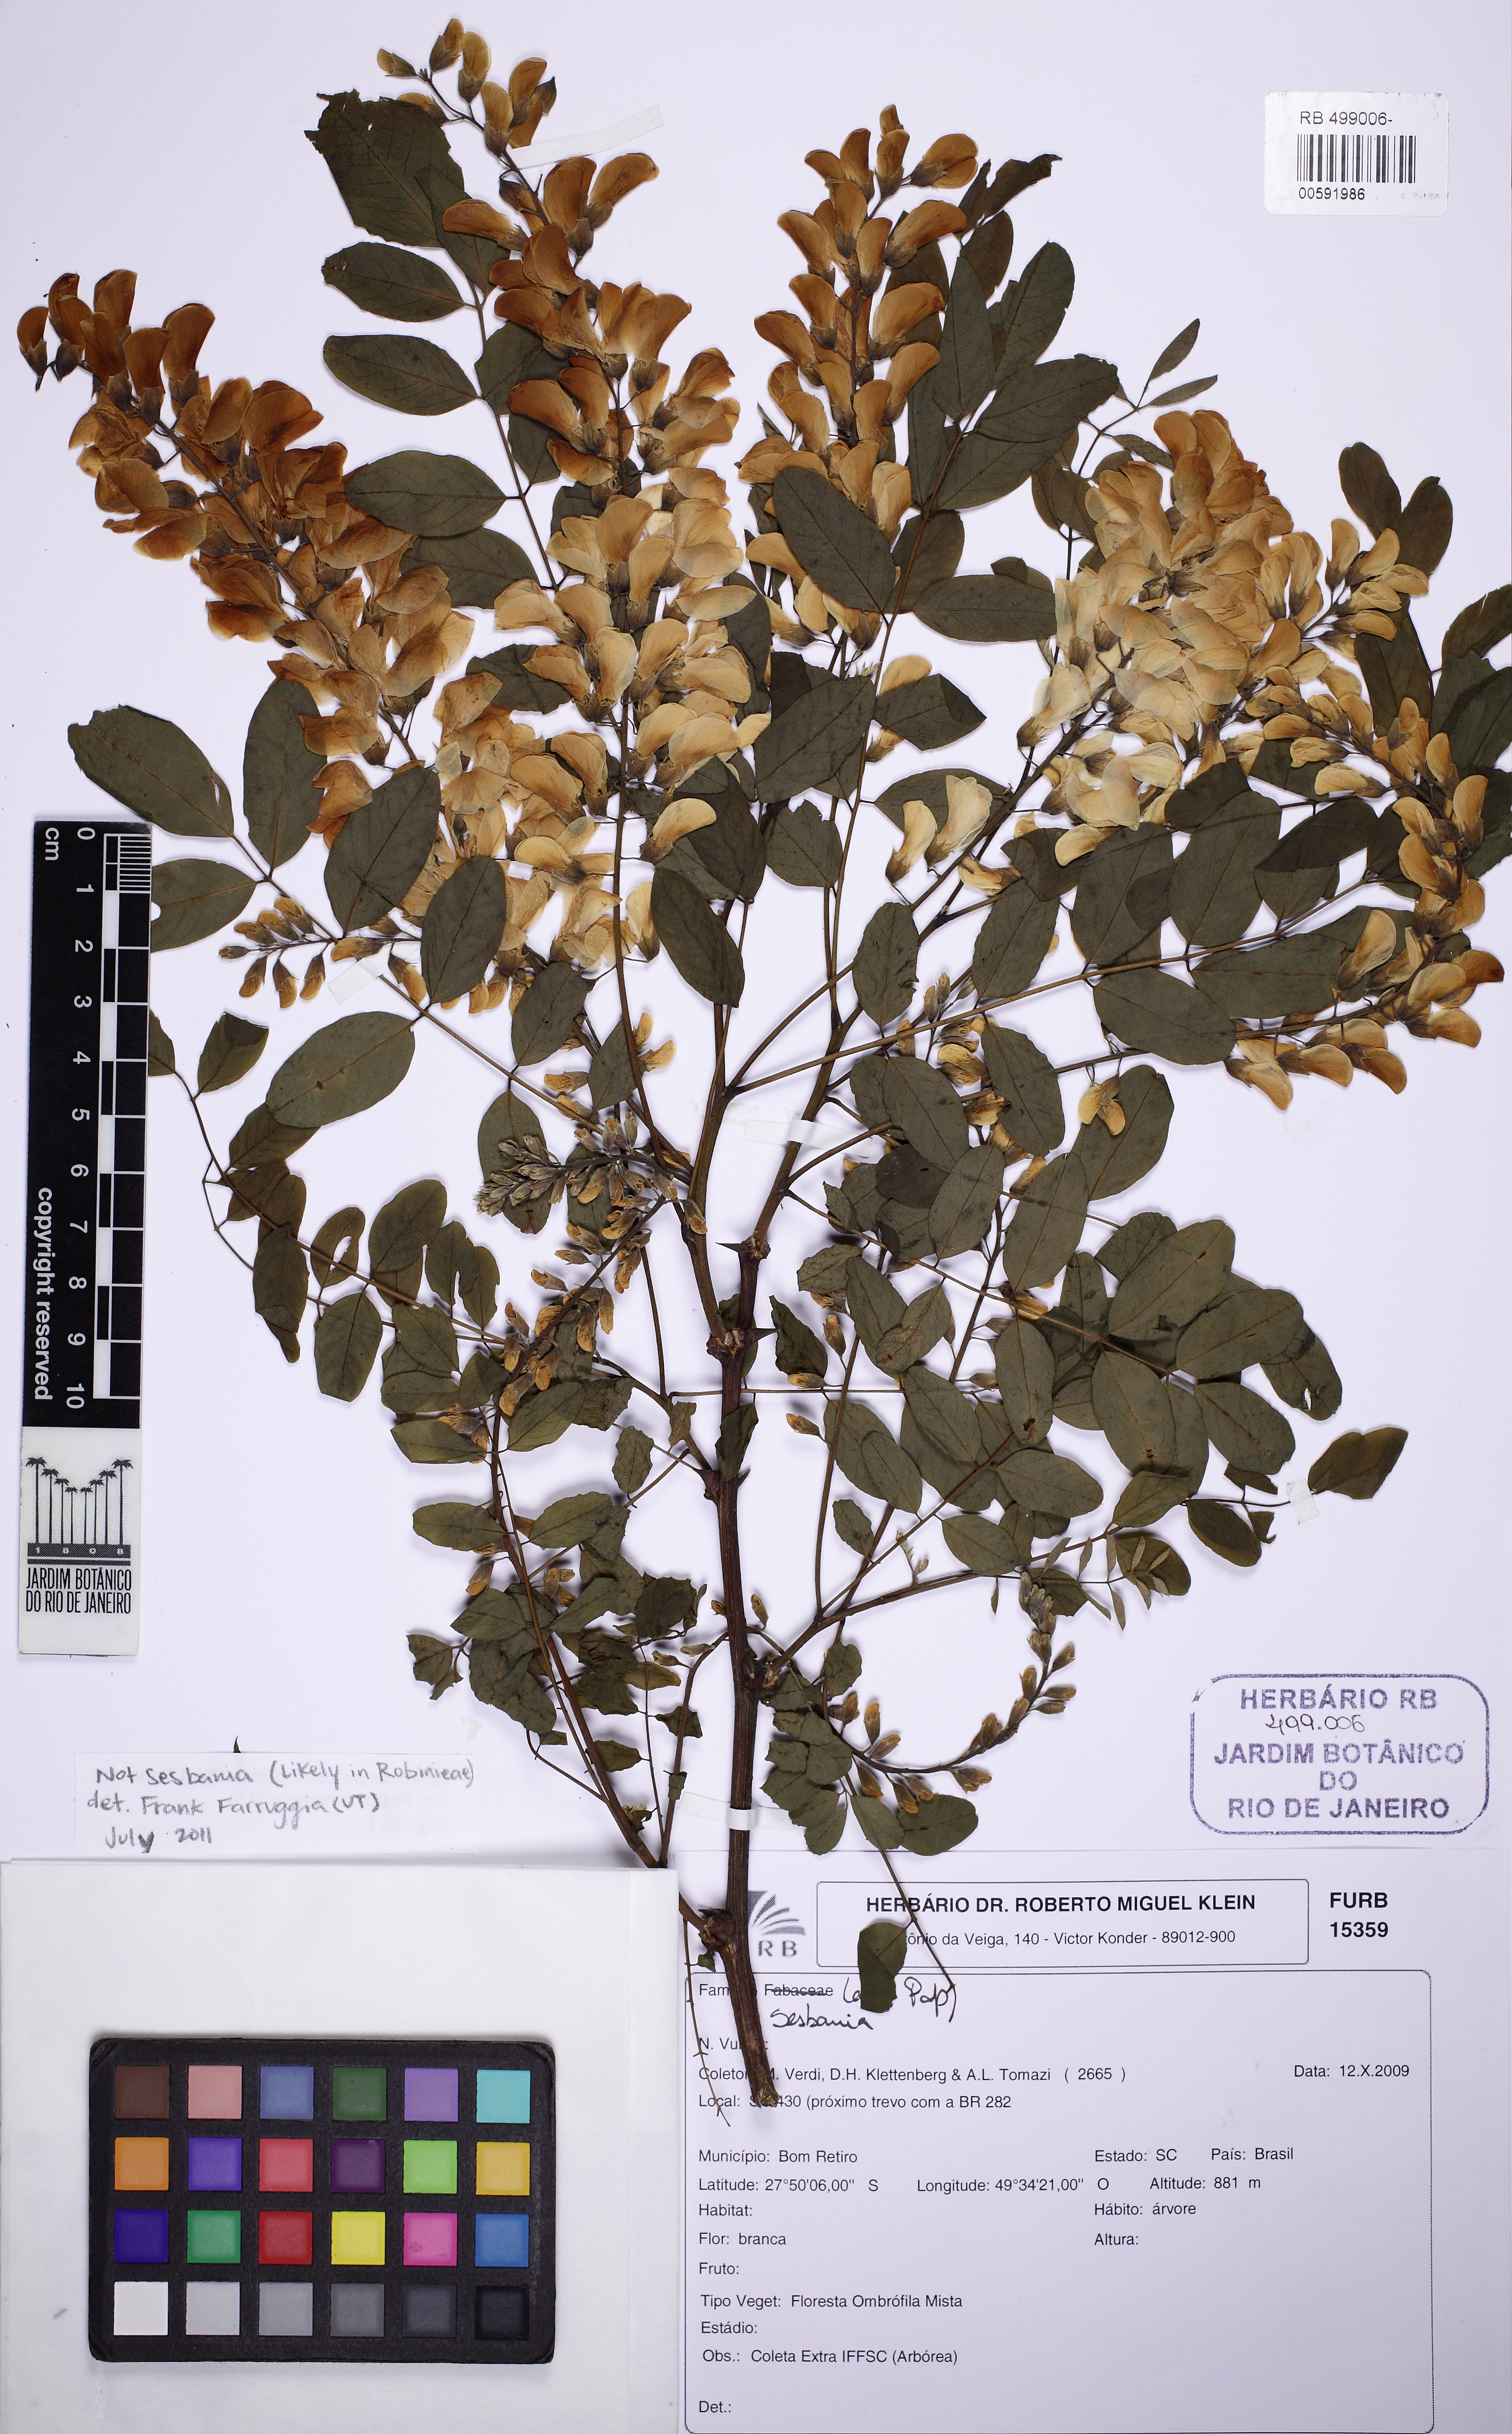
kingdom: Plantae
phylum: Tracheophyta
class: Magnoliopsida
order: Fabales
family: Fabaceae
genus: Robinia
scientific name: Robinia
